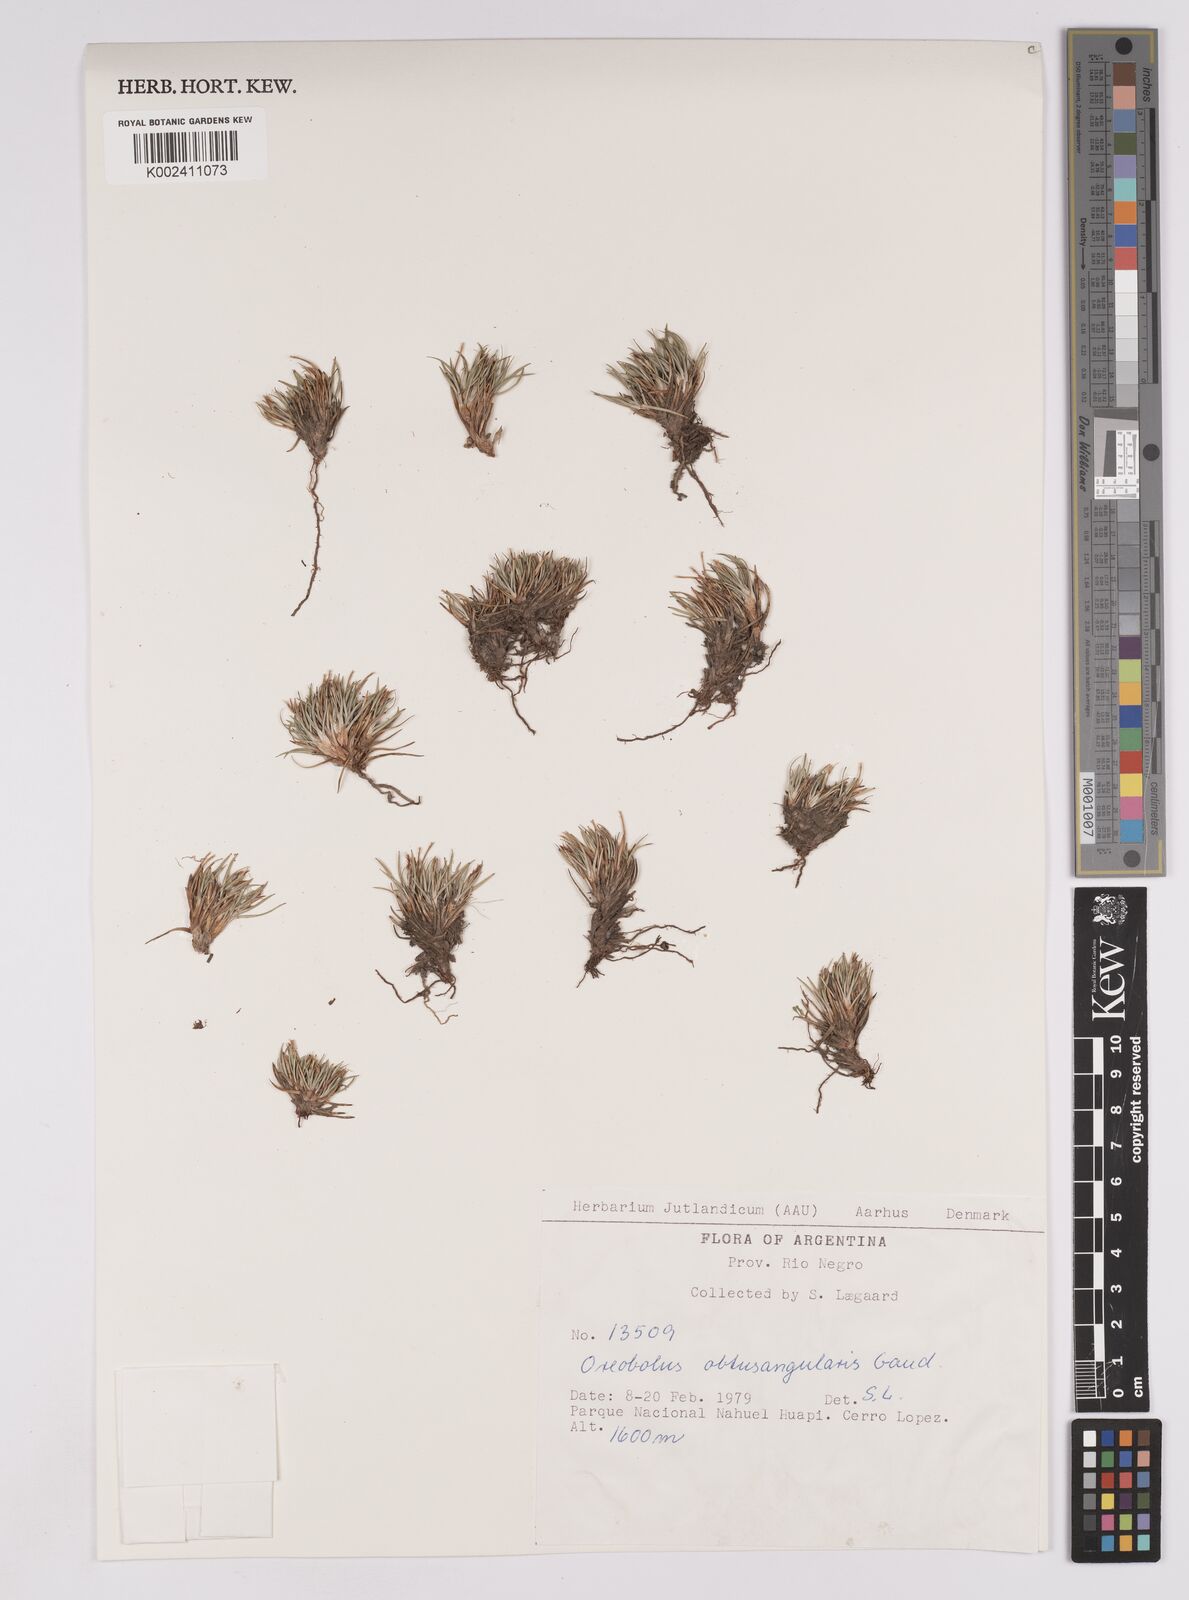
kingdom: Plantae
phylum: Tracheophyta
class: Liliopsida
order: Poales
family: Cyperaceae
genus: Oreobolus
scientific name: Oreobolus obtusangulus
